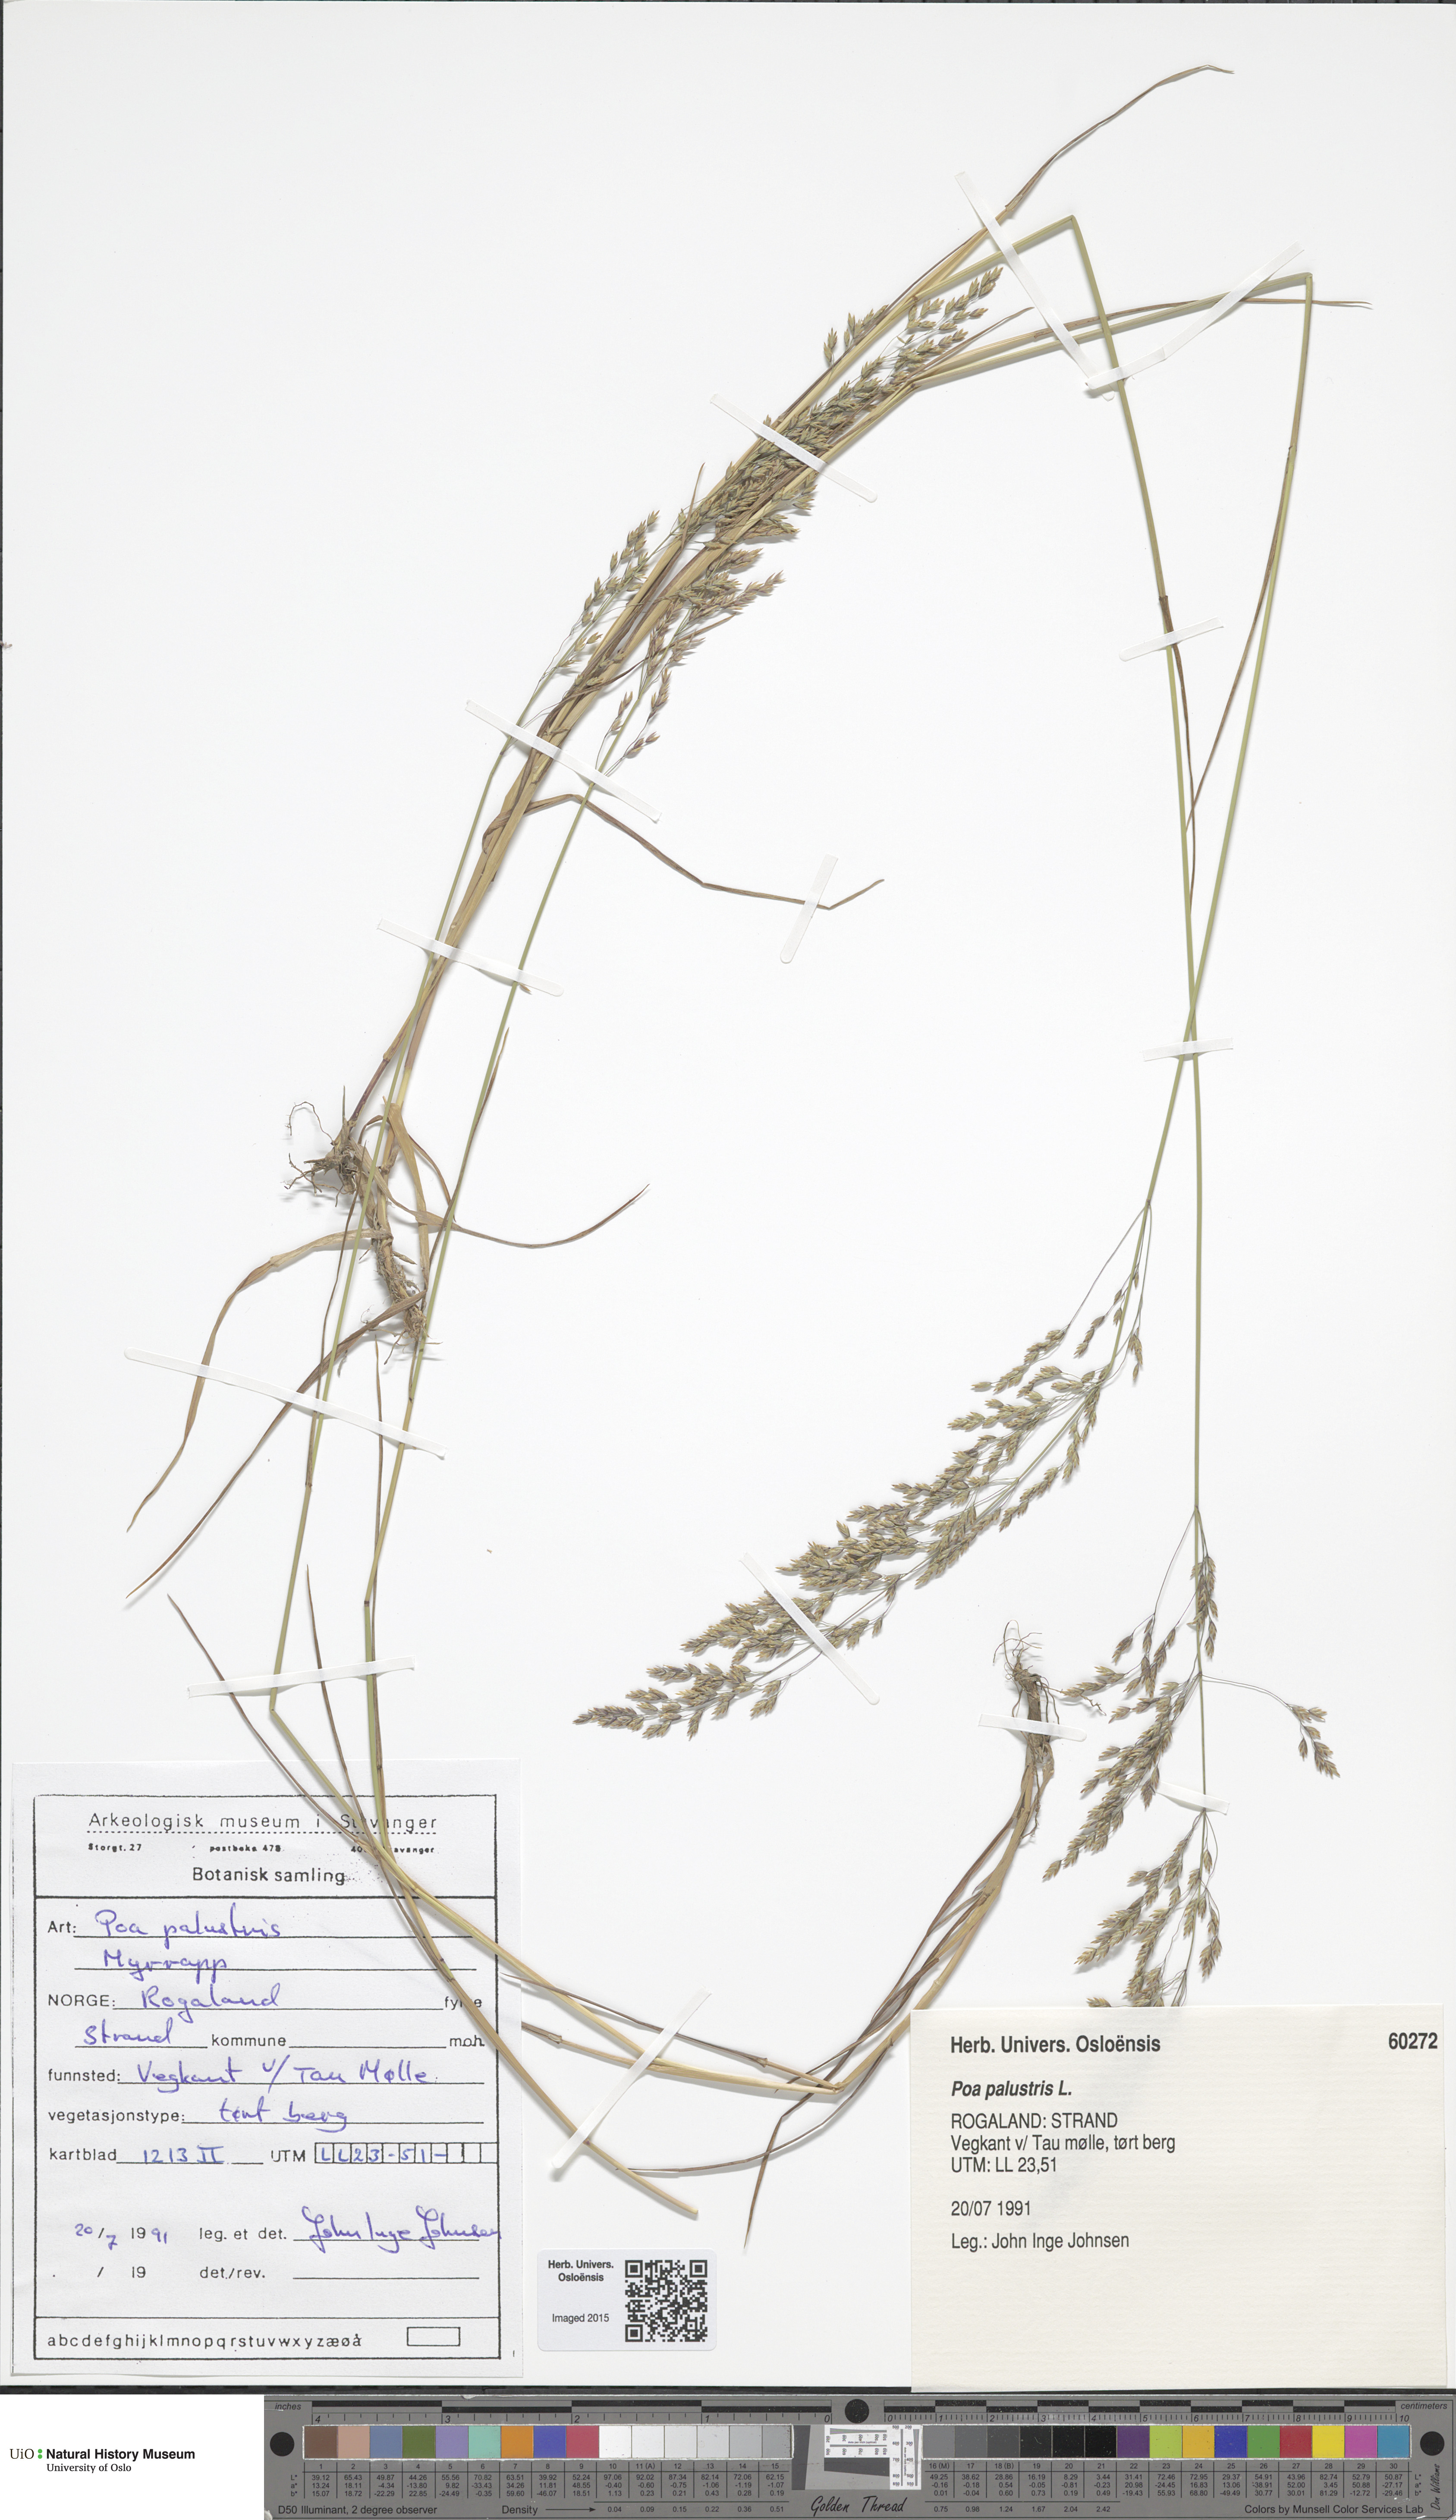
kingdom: Plantae
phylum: Tracheophyta
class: Liliopsida
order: Poales
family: Poaceae
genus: Poa
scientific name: Poa palustris
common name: Swamp meadow-grass
